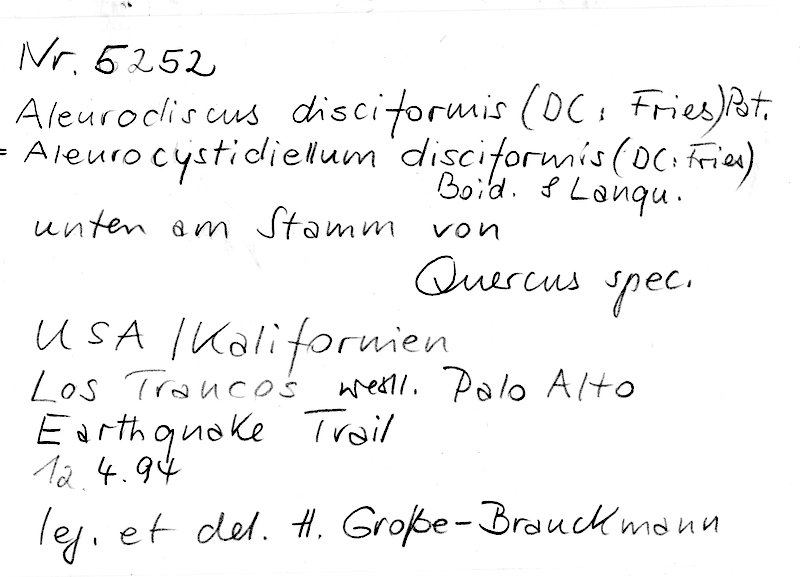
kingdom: Fungi
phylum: Basidiomycota
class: Agaricomycetes
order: Russulales
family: Stereaceae
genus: Aleurodiscus
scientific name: Aleurodiscus disciformis
